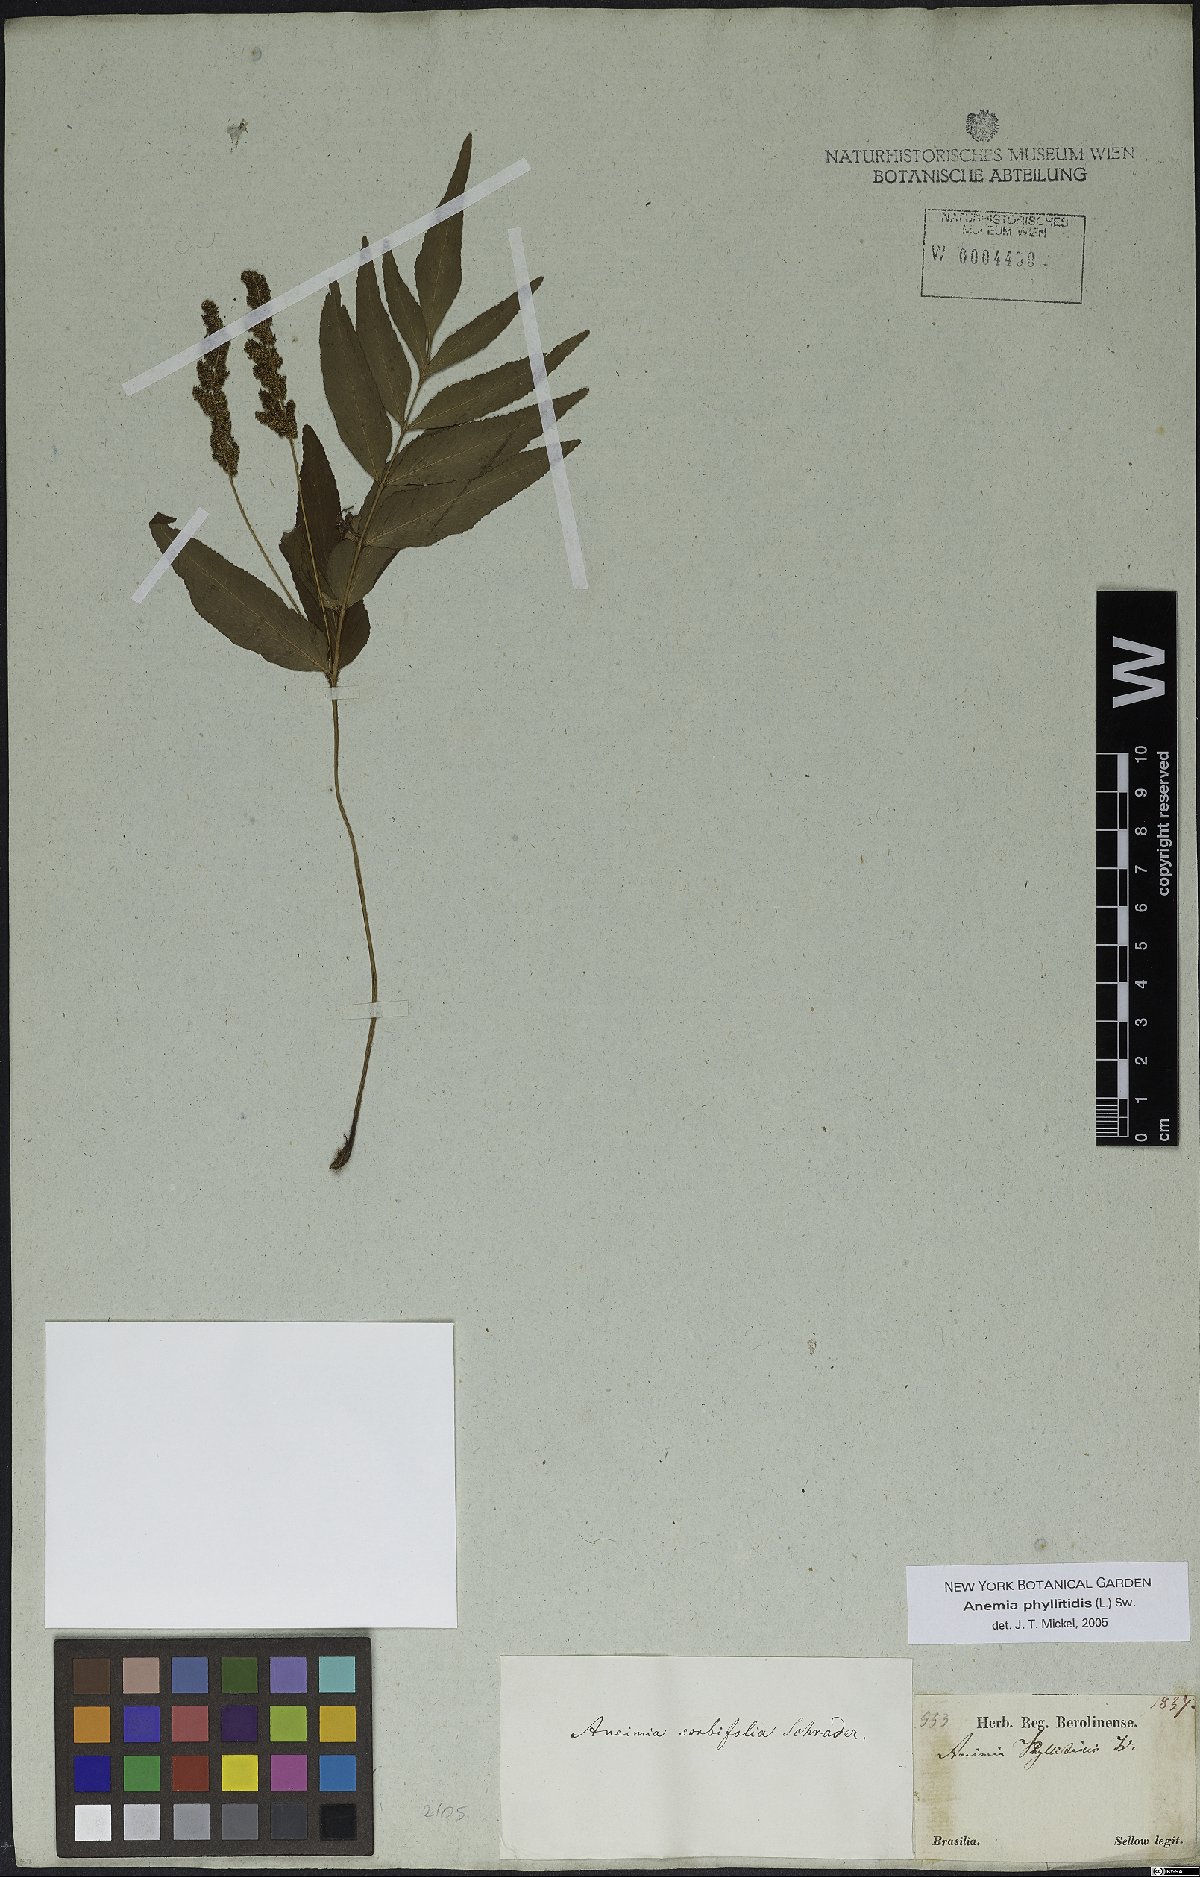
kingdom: Plantae
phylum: Tracheophyta
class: Polypodiopsida
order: Schizaeales
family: Anemiaceae
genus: Anemia
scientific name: Anemia phyllitidis
